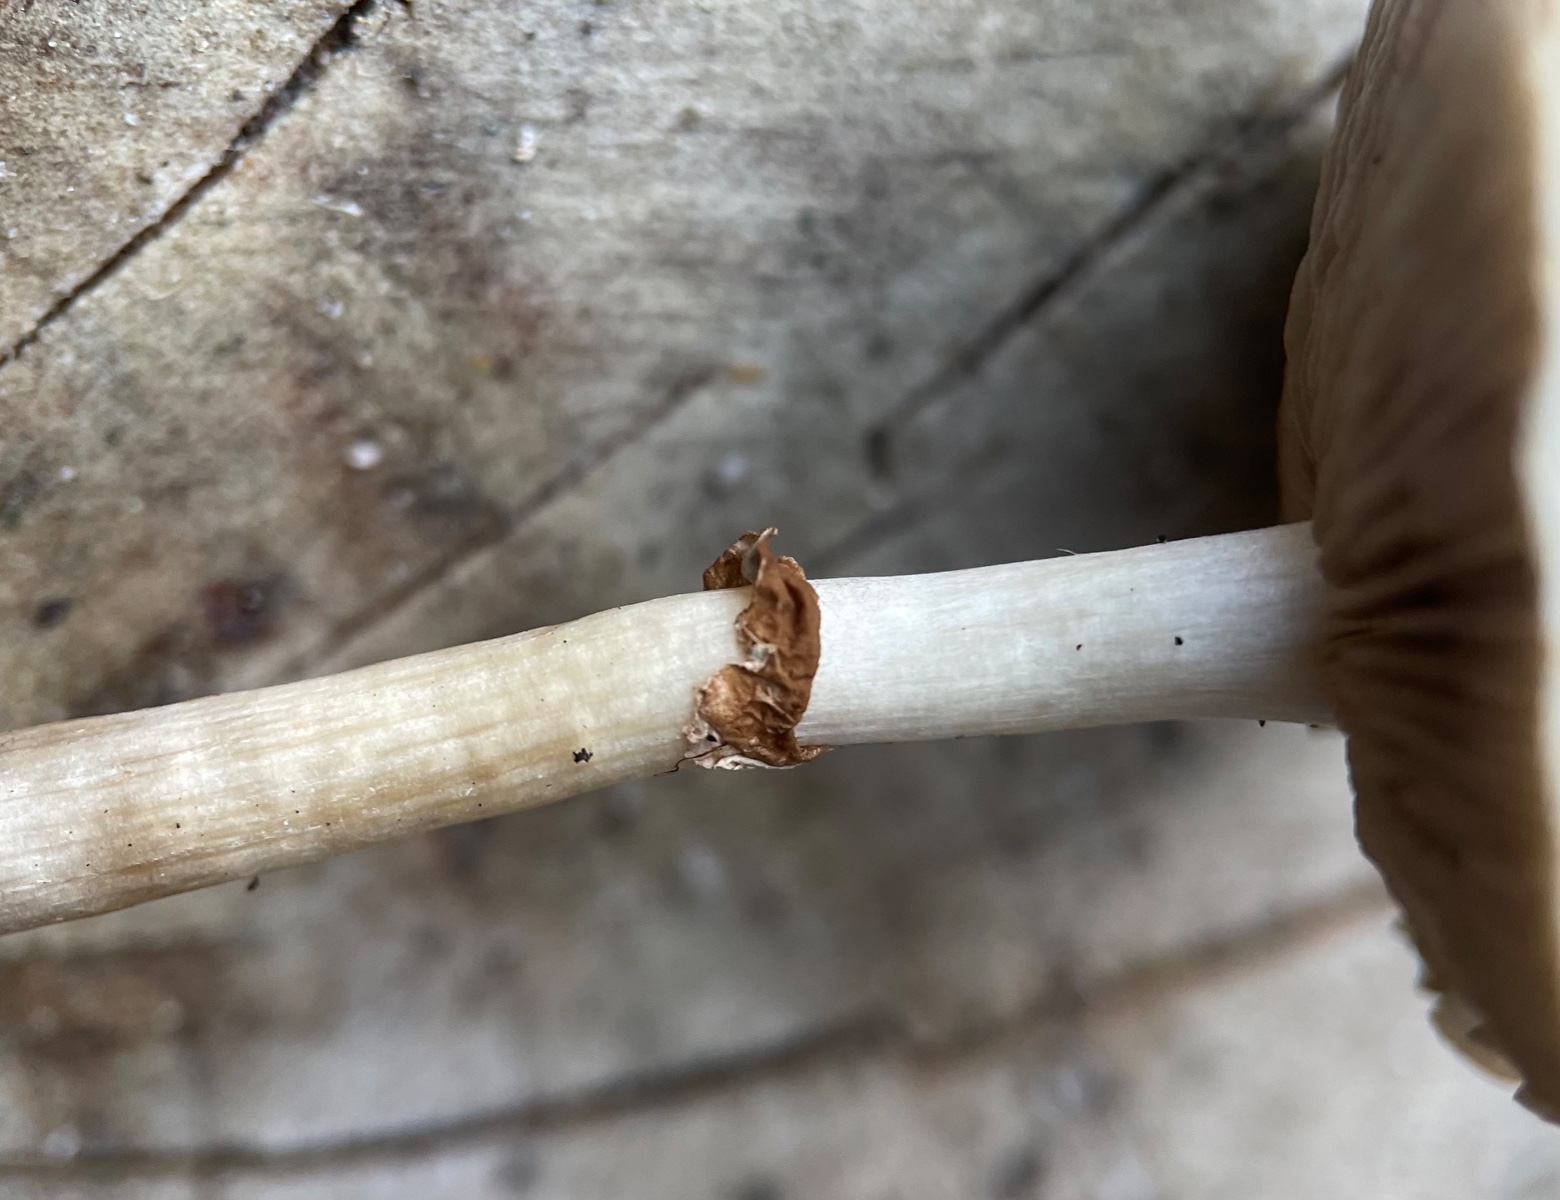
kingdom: Fungi
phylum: Basidiomycota
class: Agaricomycetes
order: Agaricales
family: Strophariaceae
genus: Agrocybe
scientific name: Agrocybe
